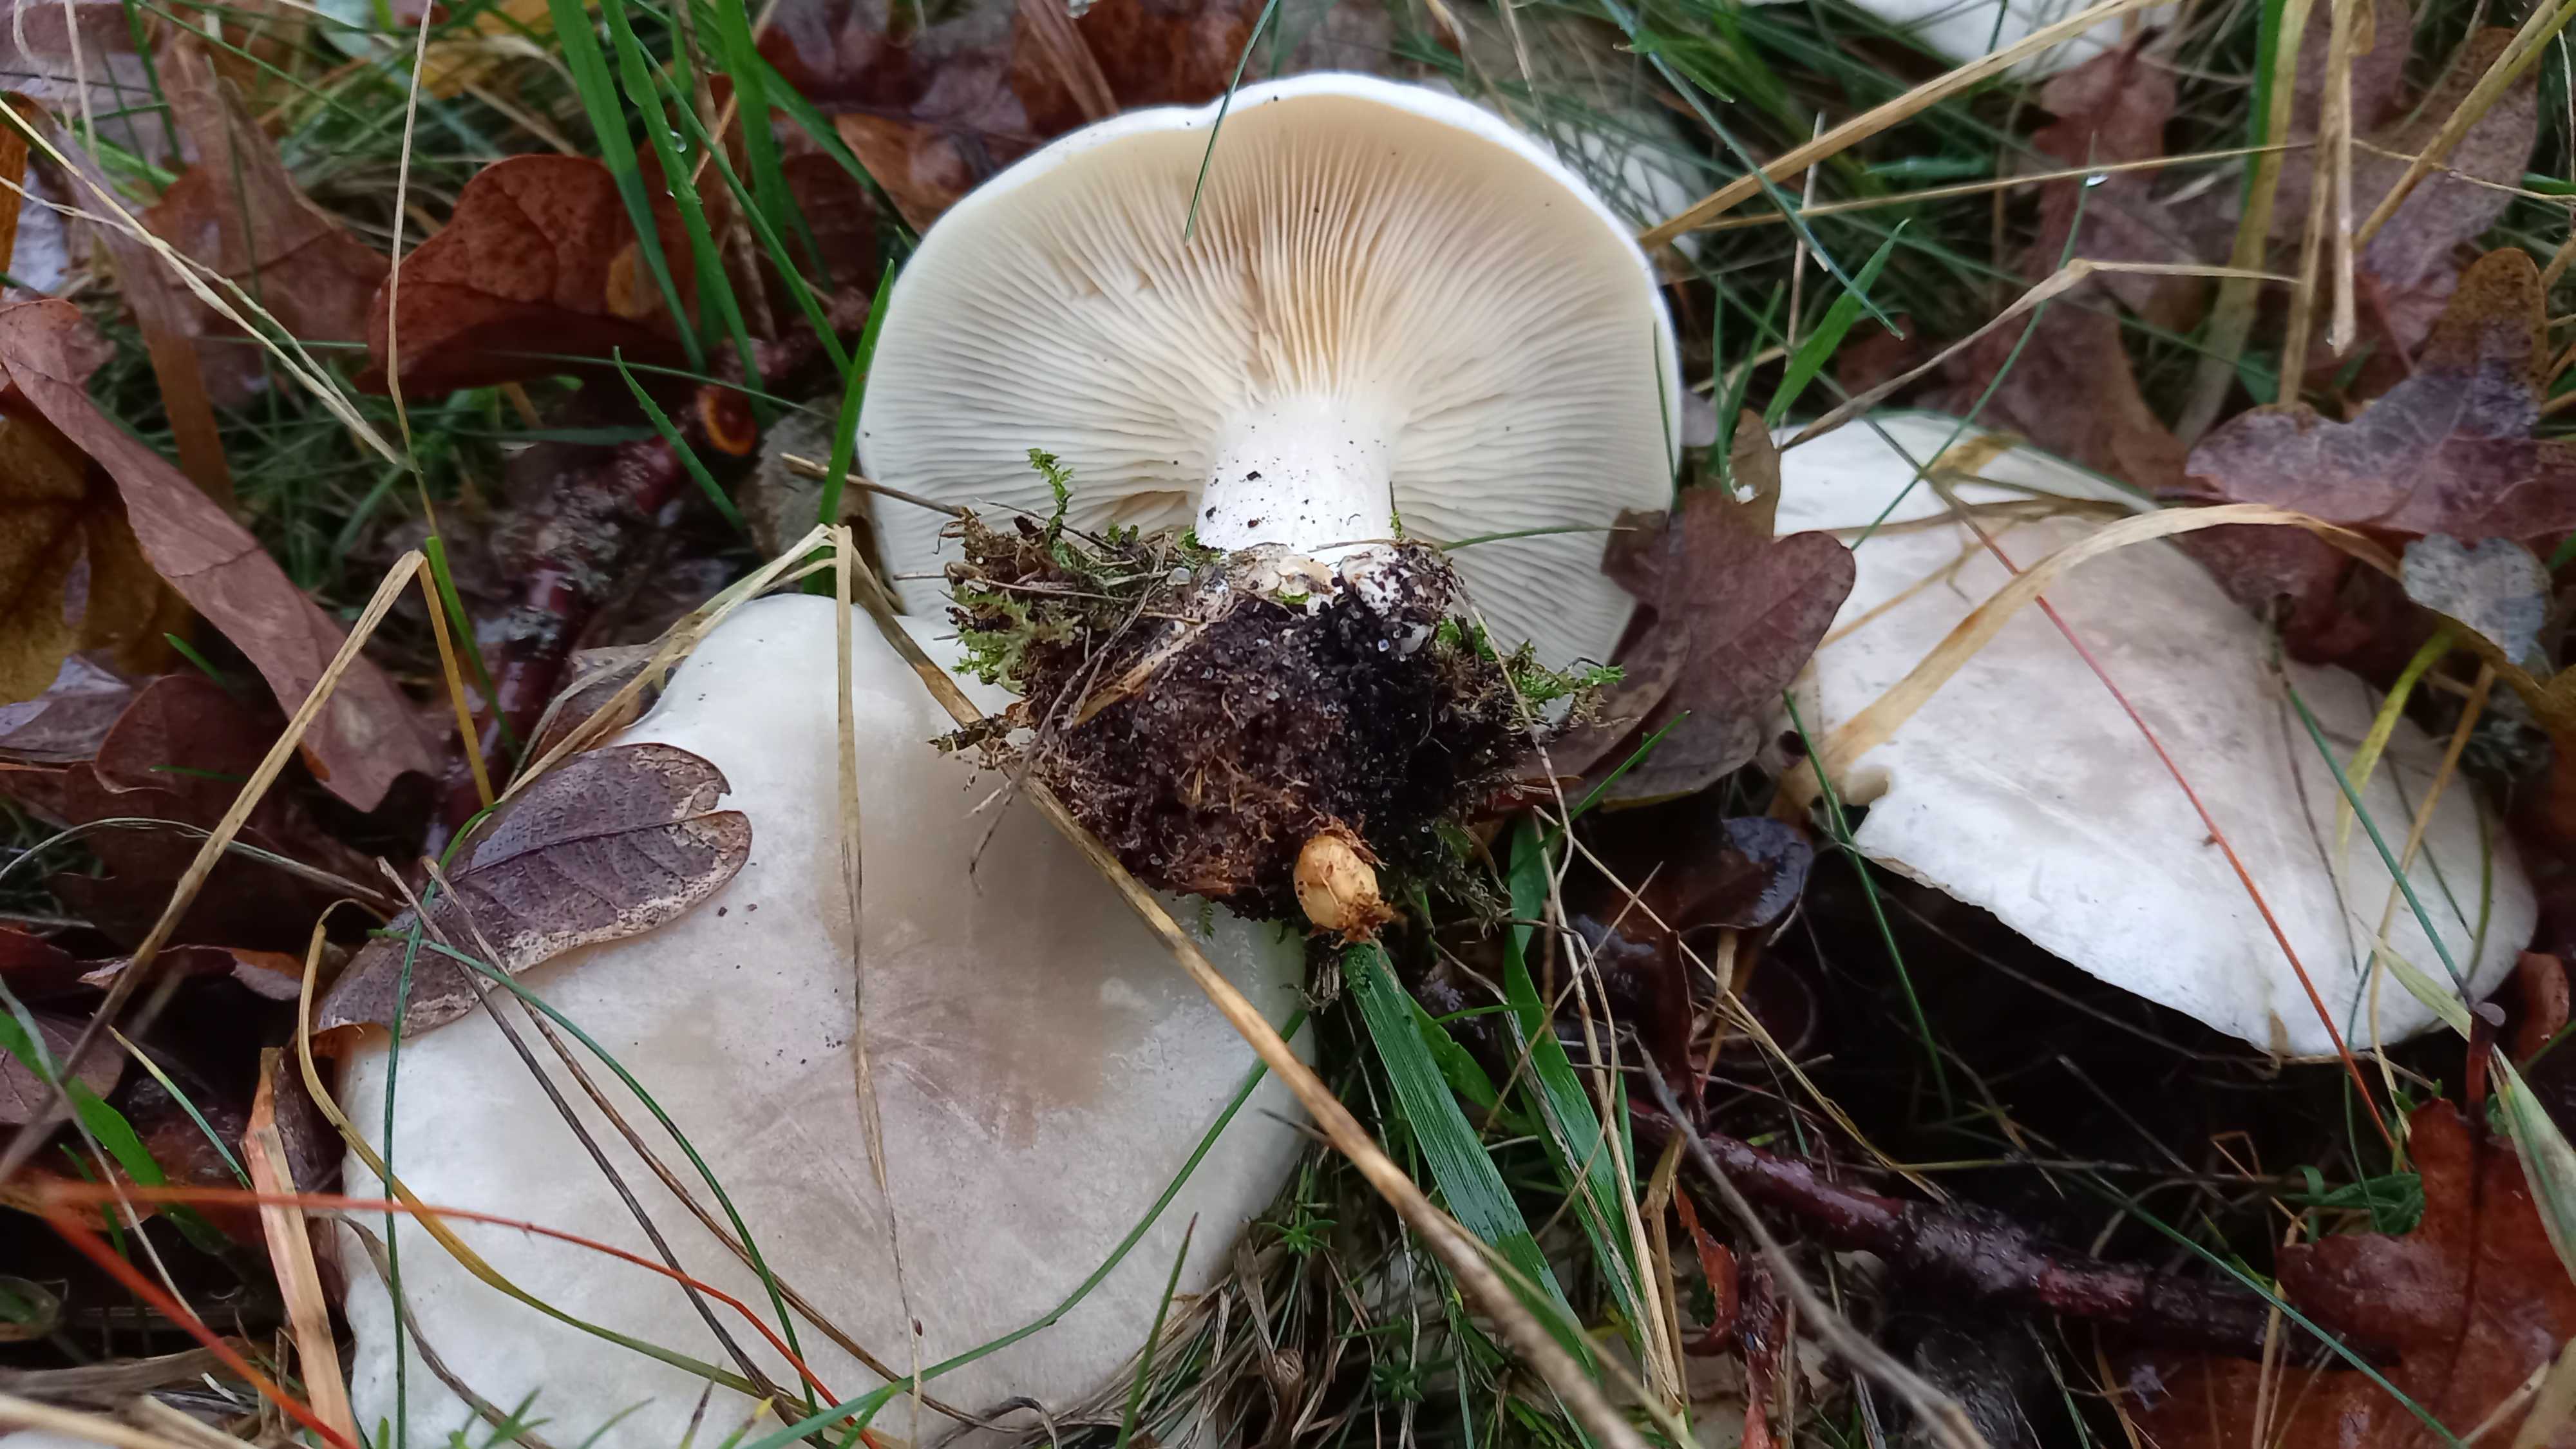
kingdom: Fungi
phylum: Basidiomycota
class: Agaricomycetes
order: Agaricales
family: Tricholomataceae
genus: Clitocybe
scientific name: Clitocybe nebularis
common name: tåge-tragthat
